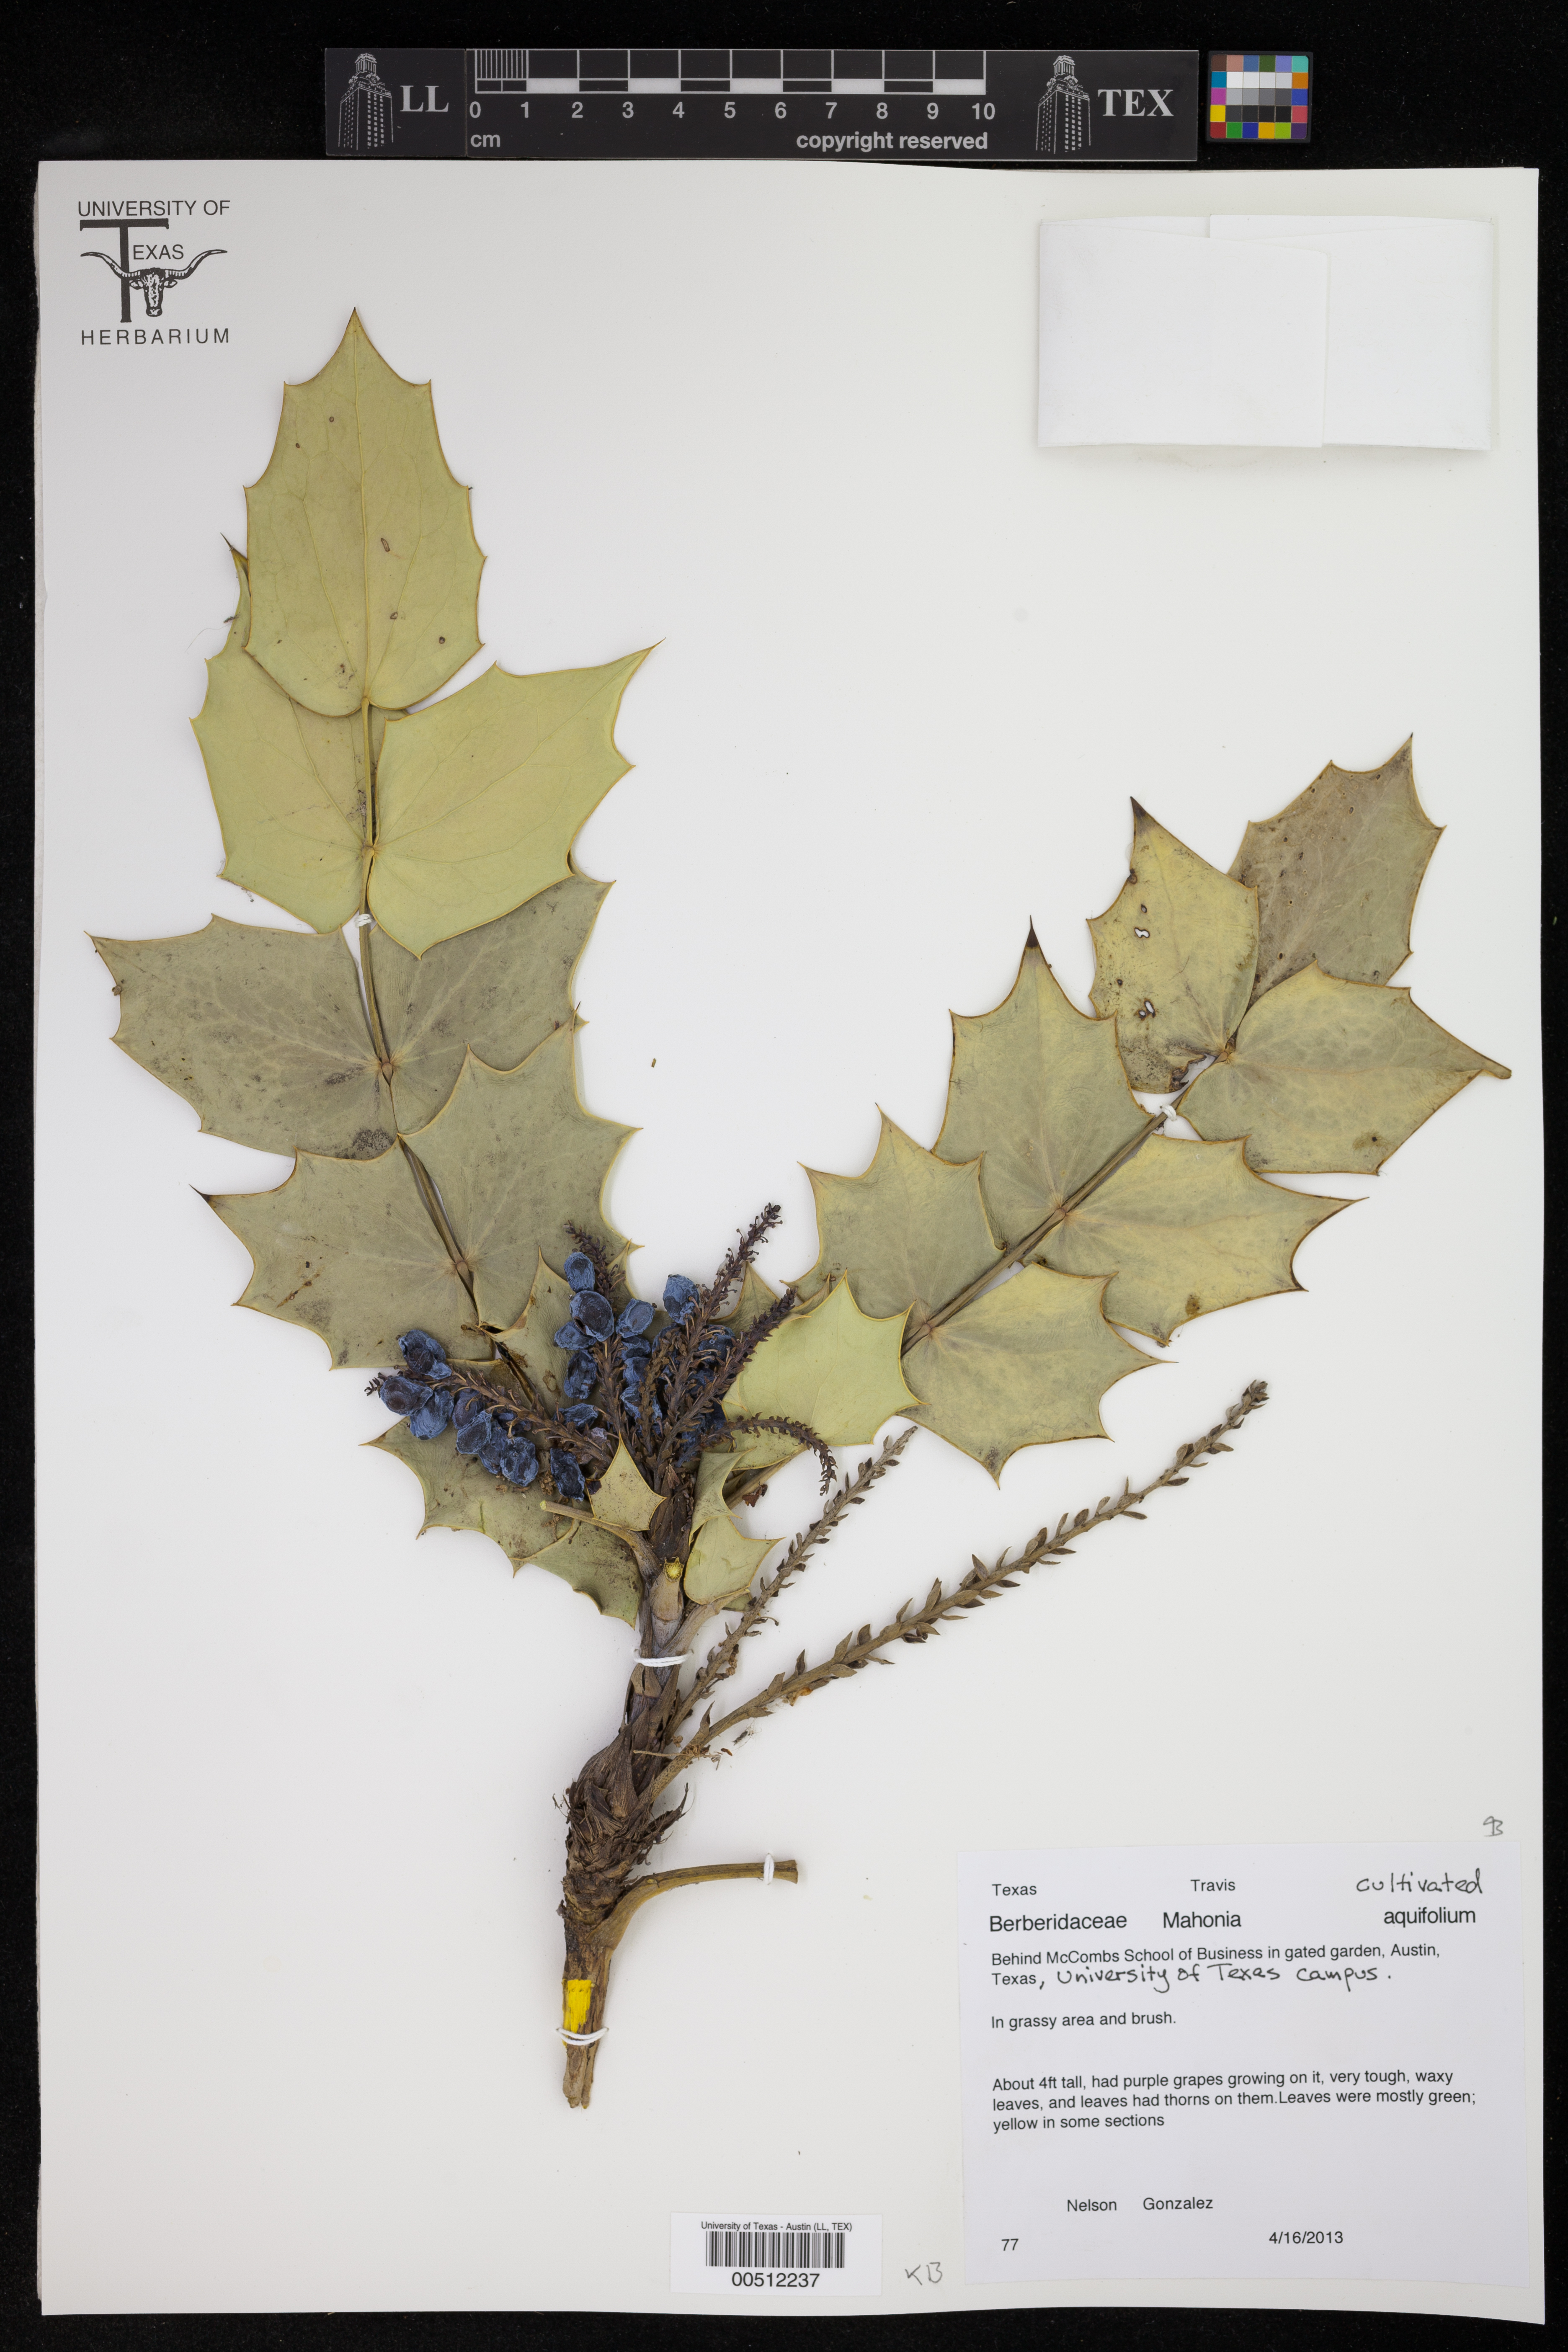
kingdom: Plantae
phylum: Tracheophyta
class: Magnoliopsida
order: Ranunculales
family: Berberidaceae
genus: Mahonia
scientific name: Mahonia aquifolium
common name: Oregon-grape
